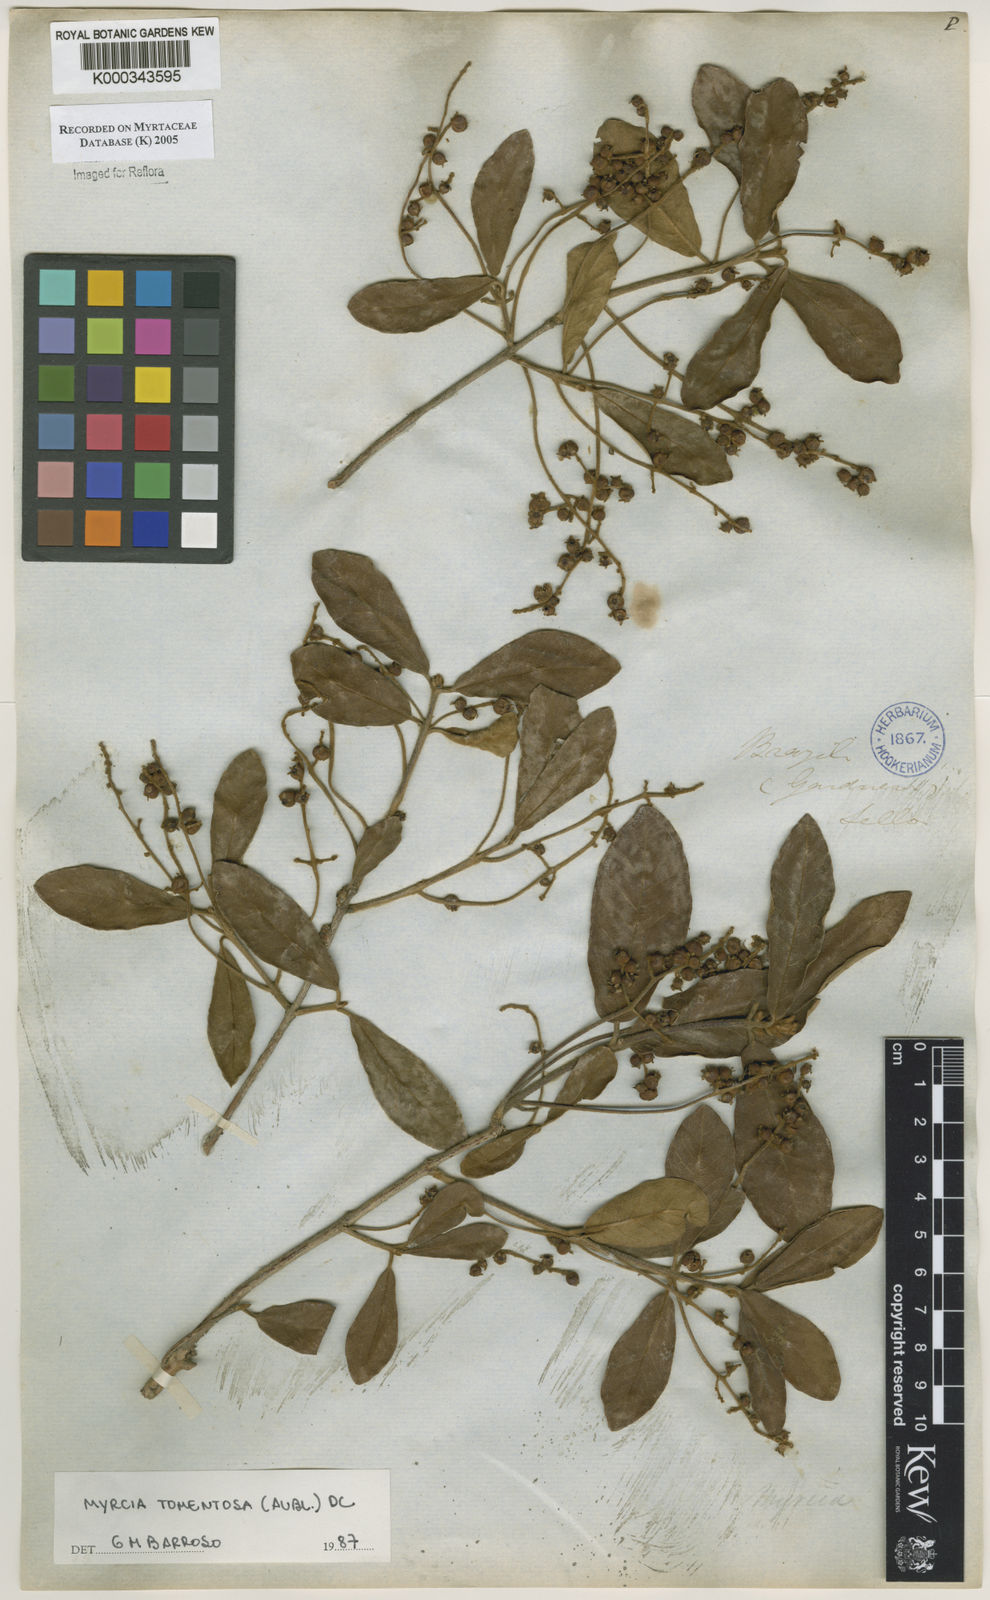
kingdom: Plantae
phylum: Tracheophyta
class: Magnoliopsida
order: Myrtales
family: Myrtaceae
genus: Myrcia
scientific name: Myrcia tomentosa
